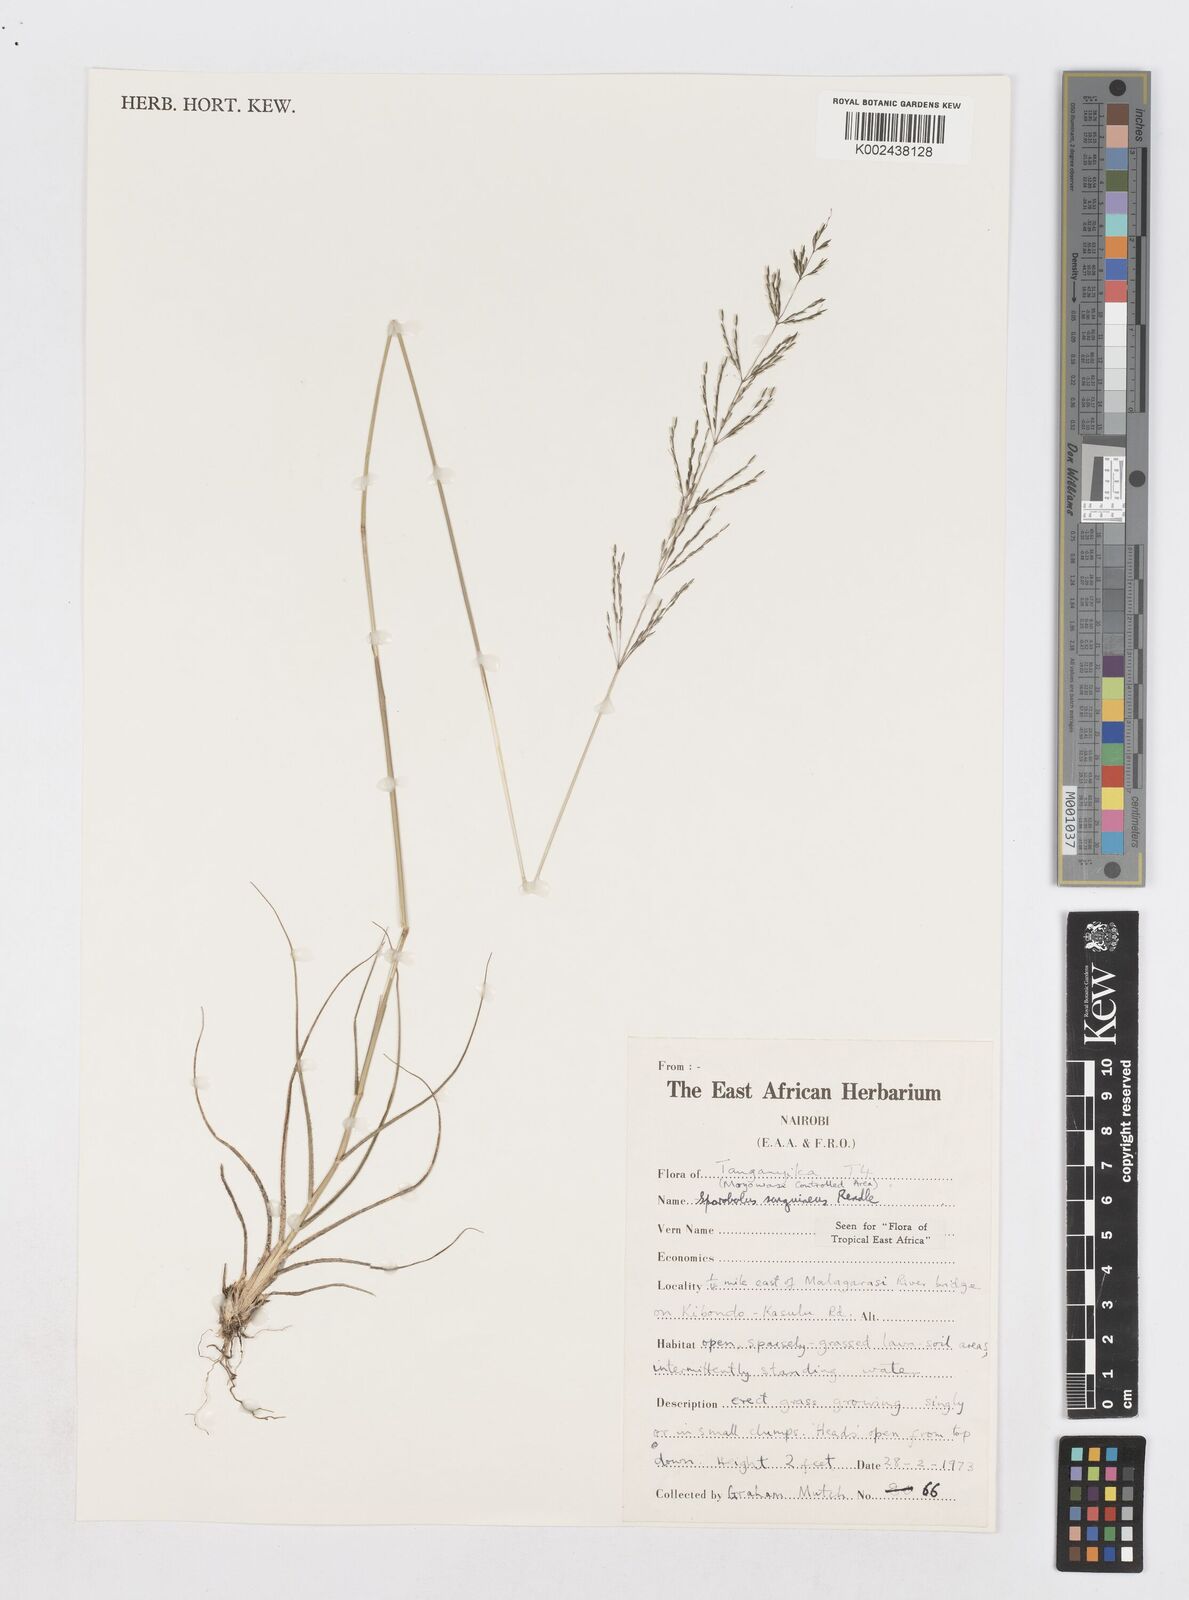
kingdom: Plantae
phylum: Tracheophyta
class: Liliopsida
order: Poales
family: Poaceae
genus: Sporobolus
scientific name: Sporobolus sanguineus
